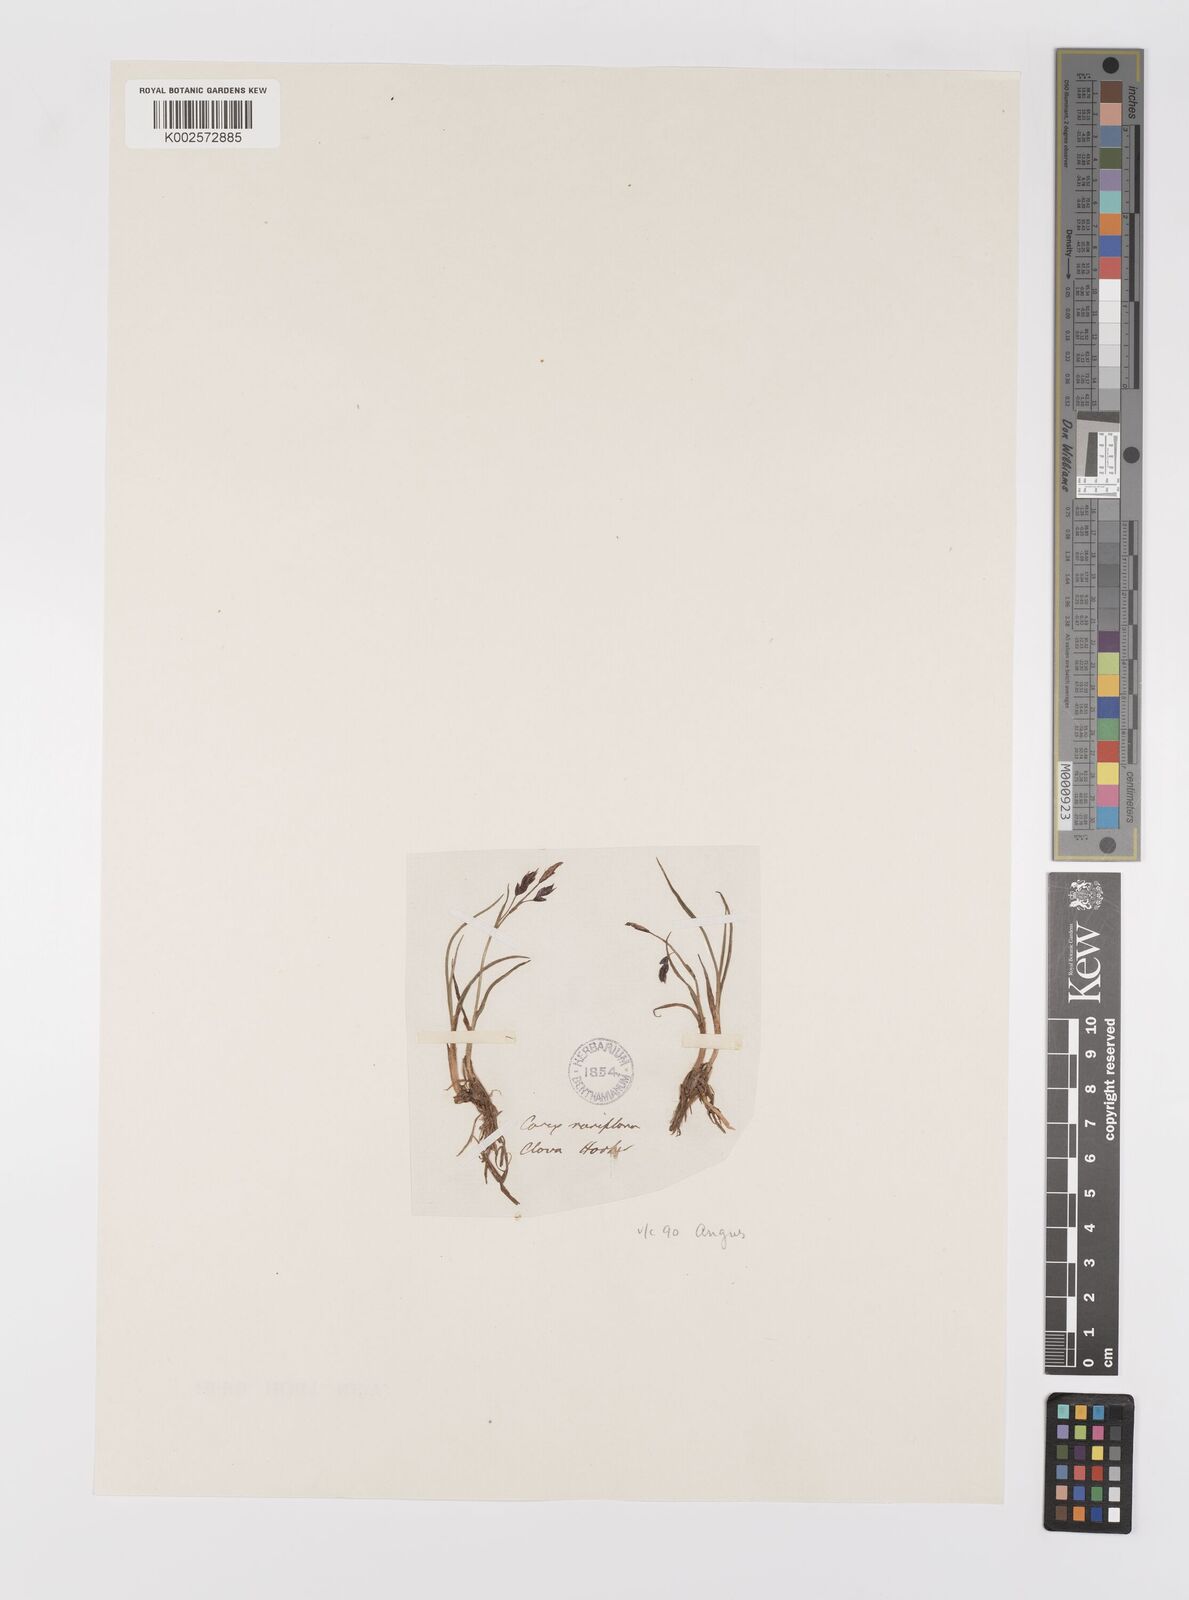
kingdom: Plantae
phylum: Tracheophyta
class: Liliopsida
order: Poales
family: Cyperaceae
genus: Carex
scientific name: Carex rariflora
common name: Loose-flowered alpine sedge
